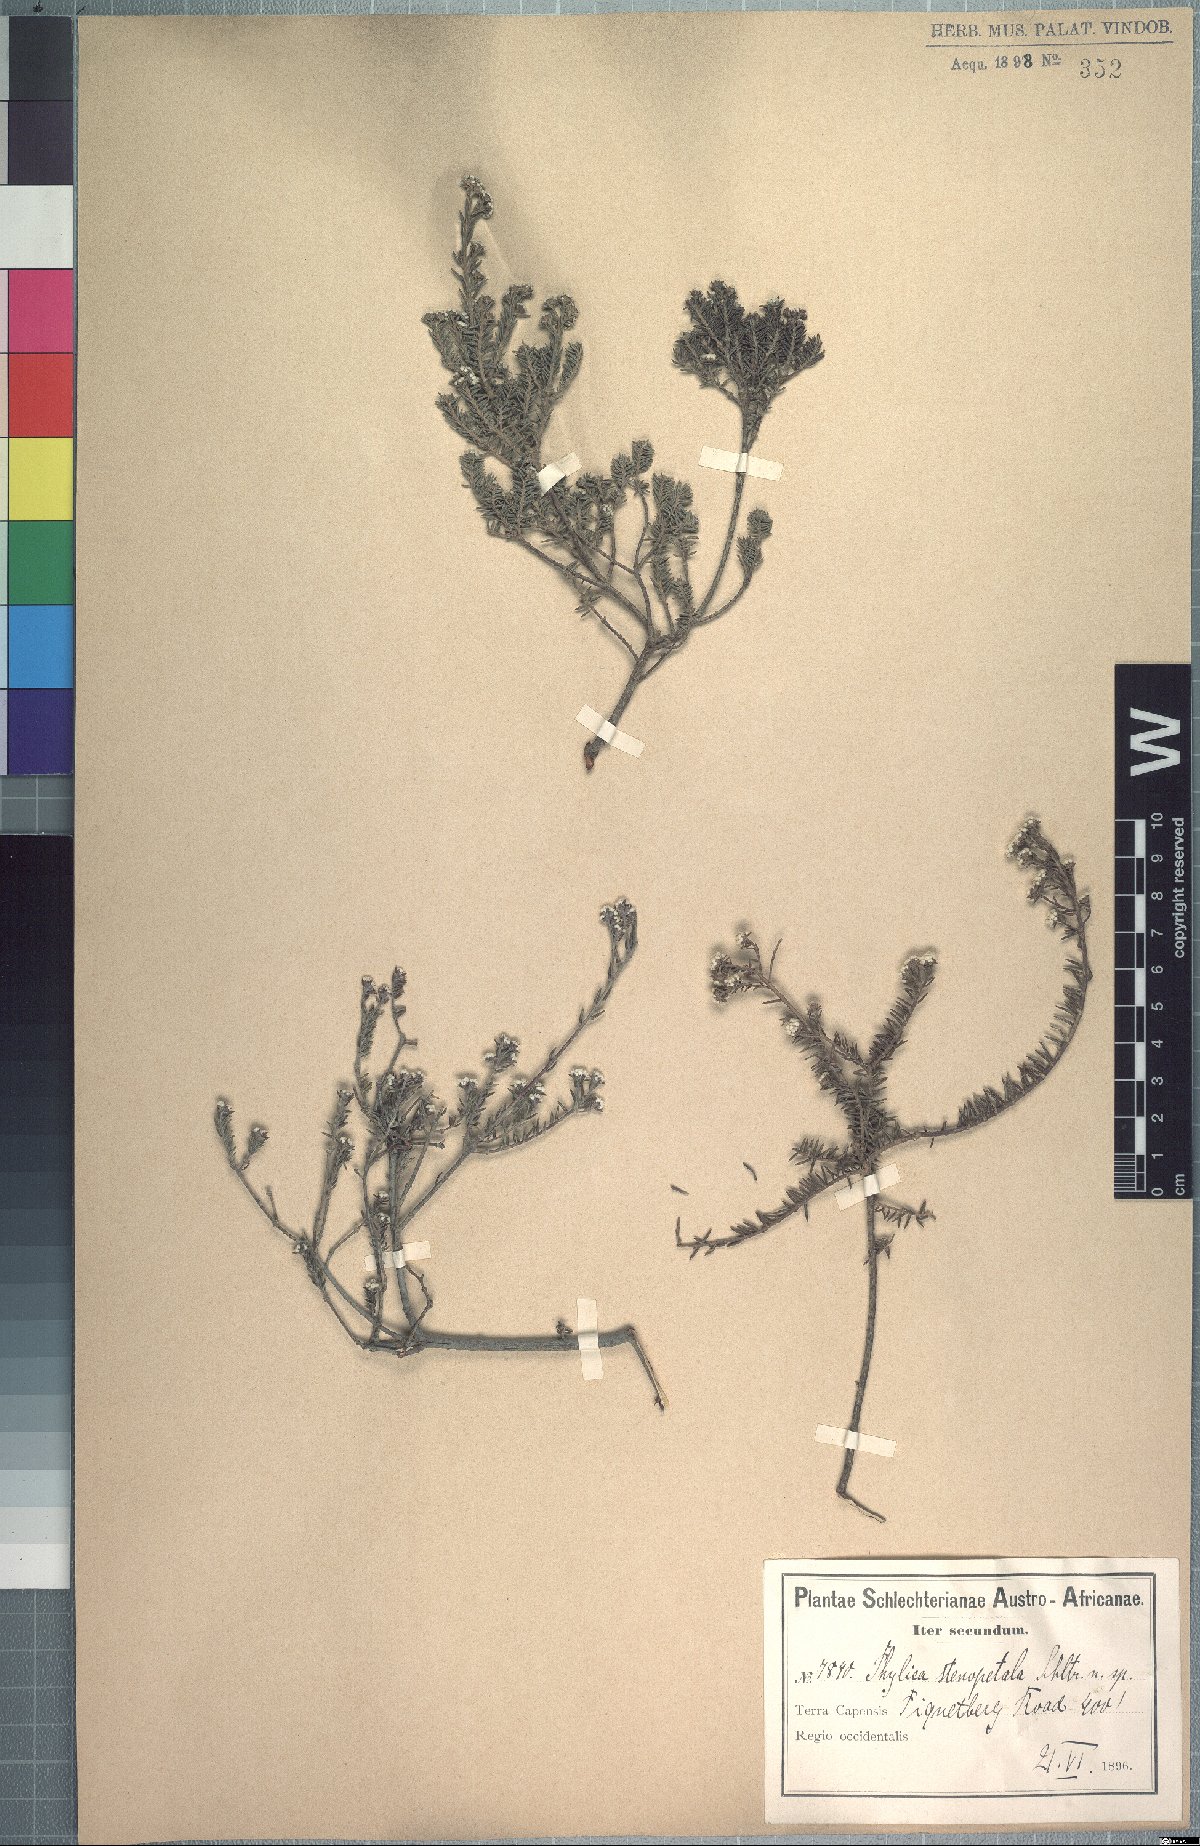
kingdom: Plantae
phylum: Tracheophyta
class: Magnoliopsida
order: Rosales
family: Rhamnaceae
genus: Phylica
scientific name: Phylica stenopetala
